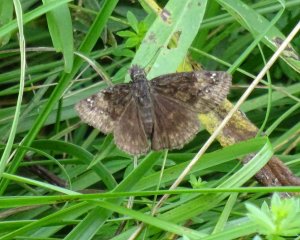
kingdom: Animalia
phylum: Arthropoda
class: Insecta
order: Lepidoptera
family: Hesperiidae
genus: Gesta
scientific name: Gesta
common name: Wild Indigo Duskywing
